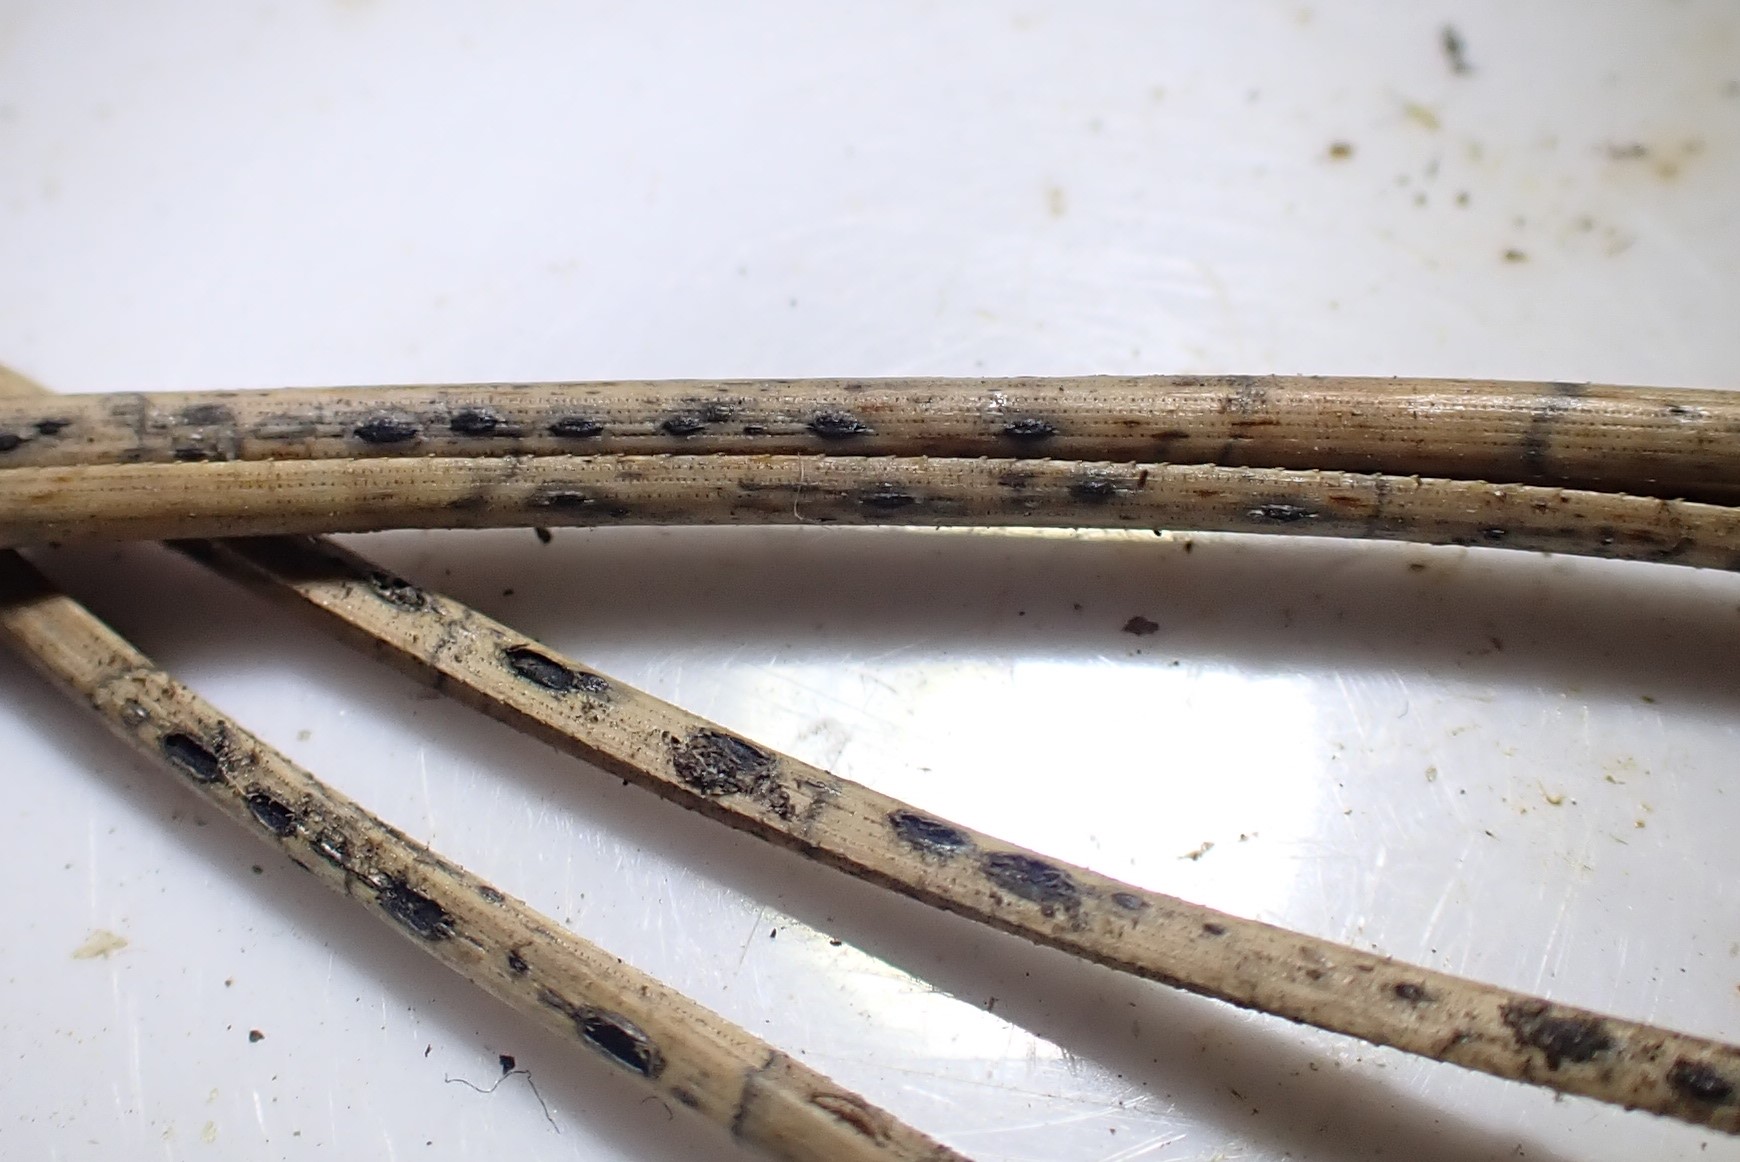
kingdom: Fungi
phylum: Ascomycota
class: Leotiomycetes
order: Rhytismatales
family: Rhytismataceae
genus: Lophodermium
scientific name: Lophodermium pinastri
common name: fyrre-fureplet
